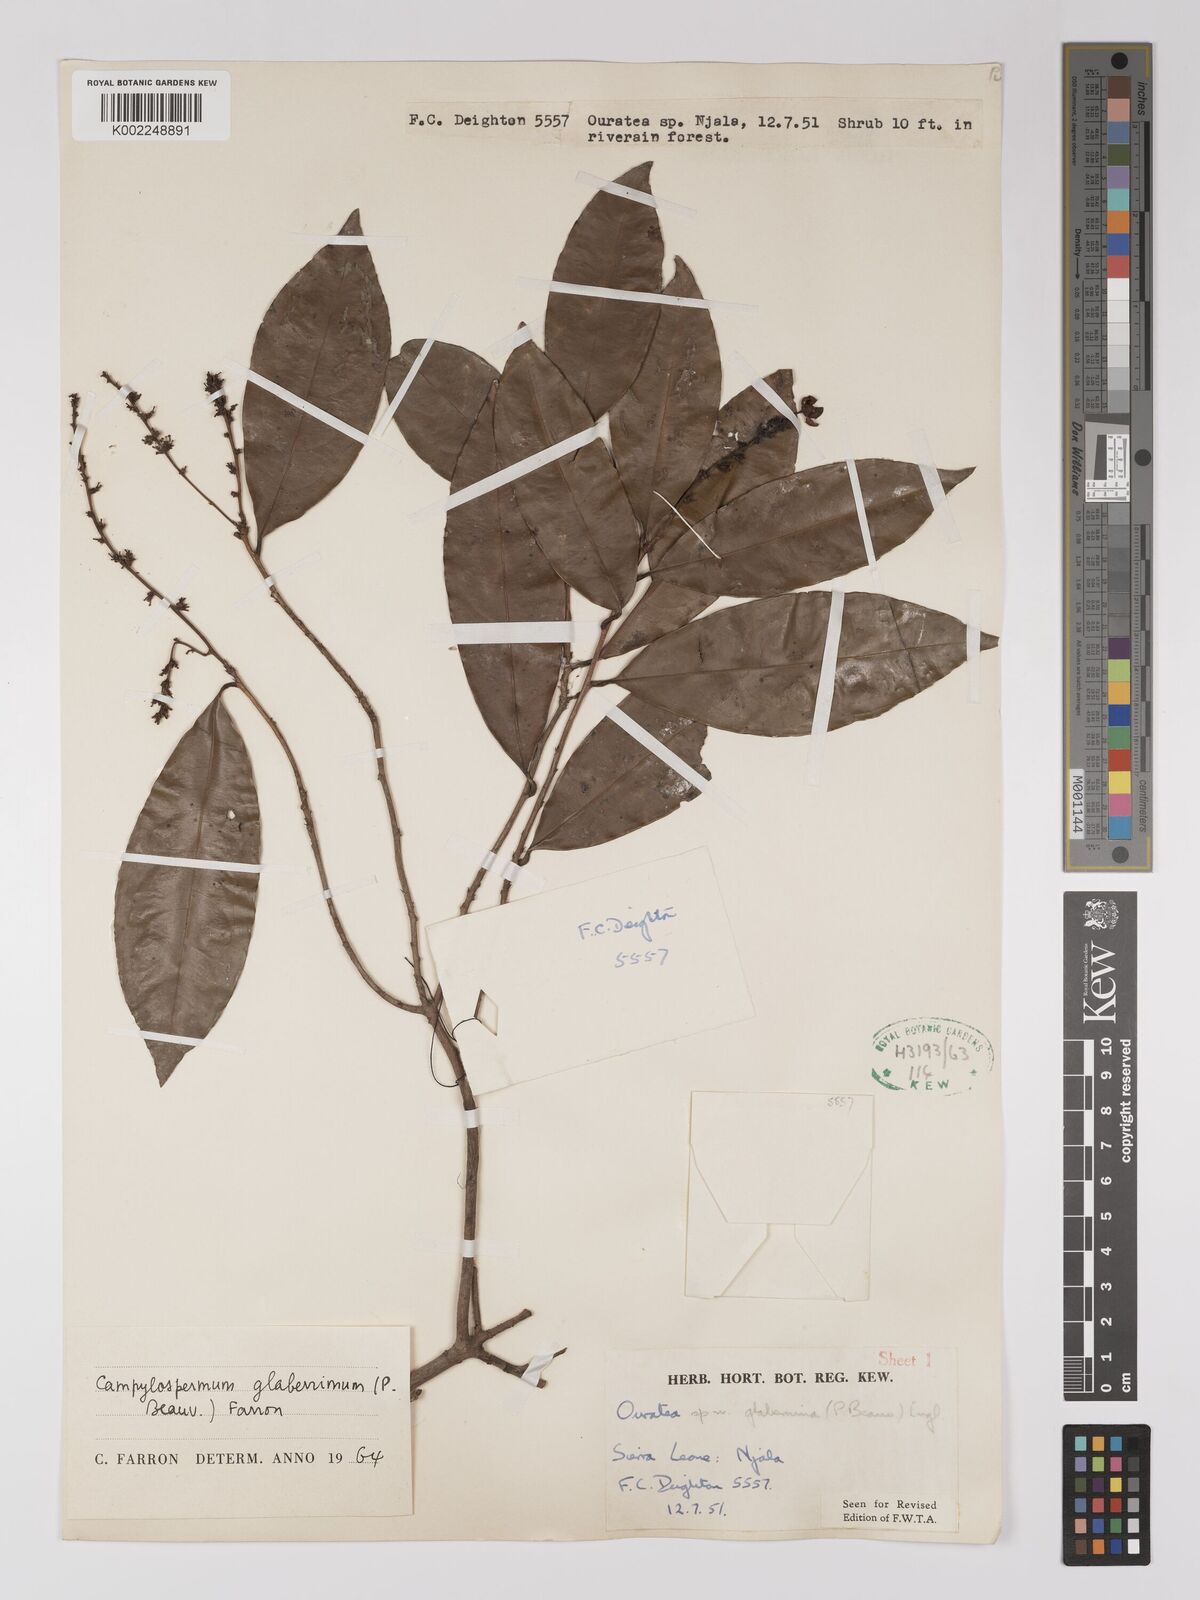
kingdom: Plantae
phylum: Tracheophyta
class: Magnoliopsida
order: Malpighiales
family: Ochnaceae
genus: Campylospermum
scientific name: Campylospermum glaberrimum
